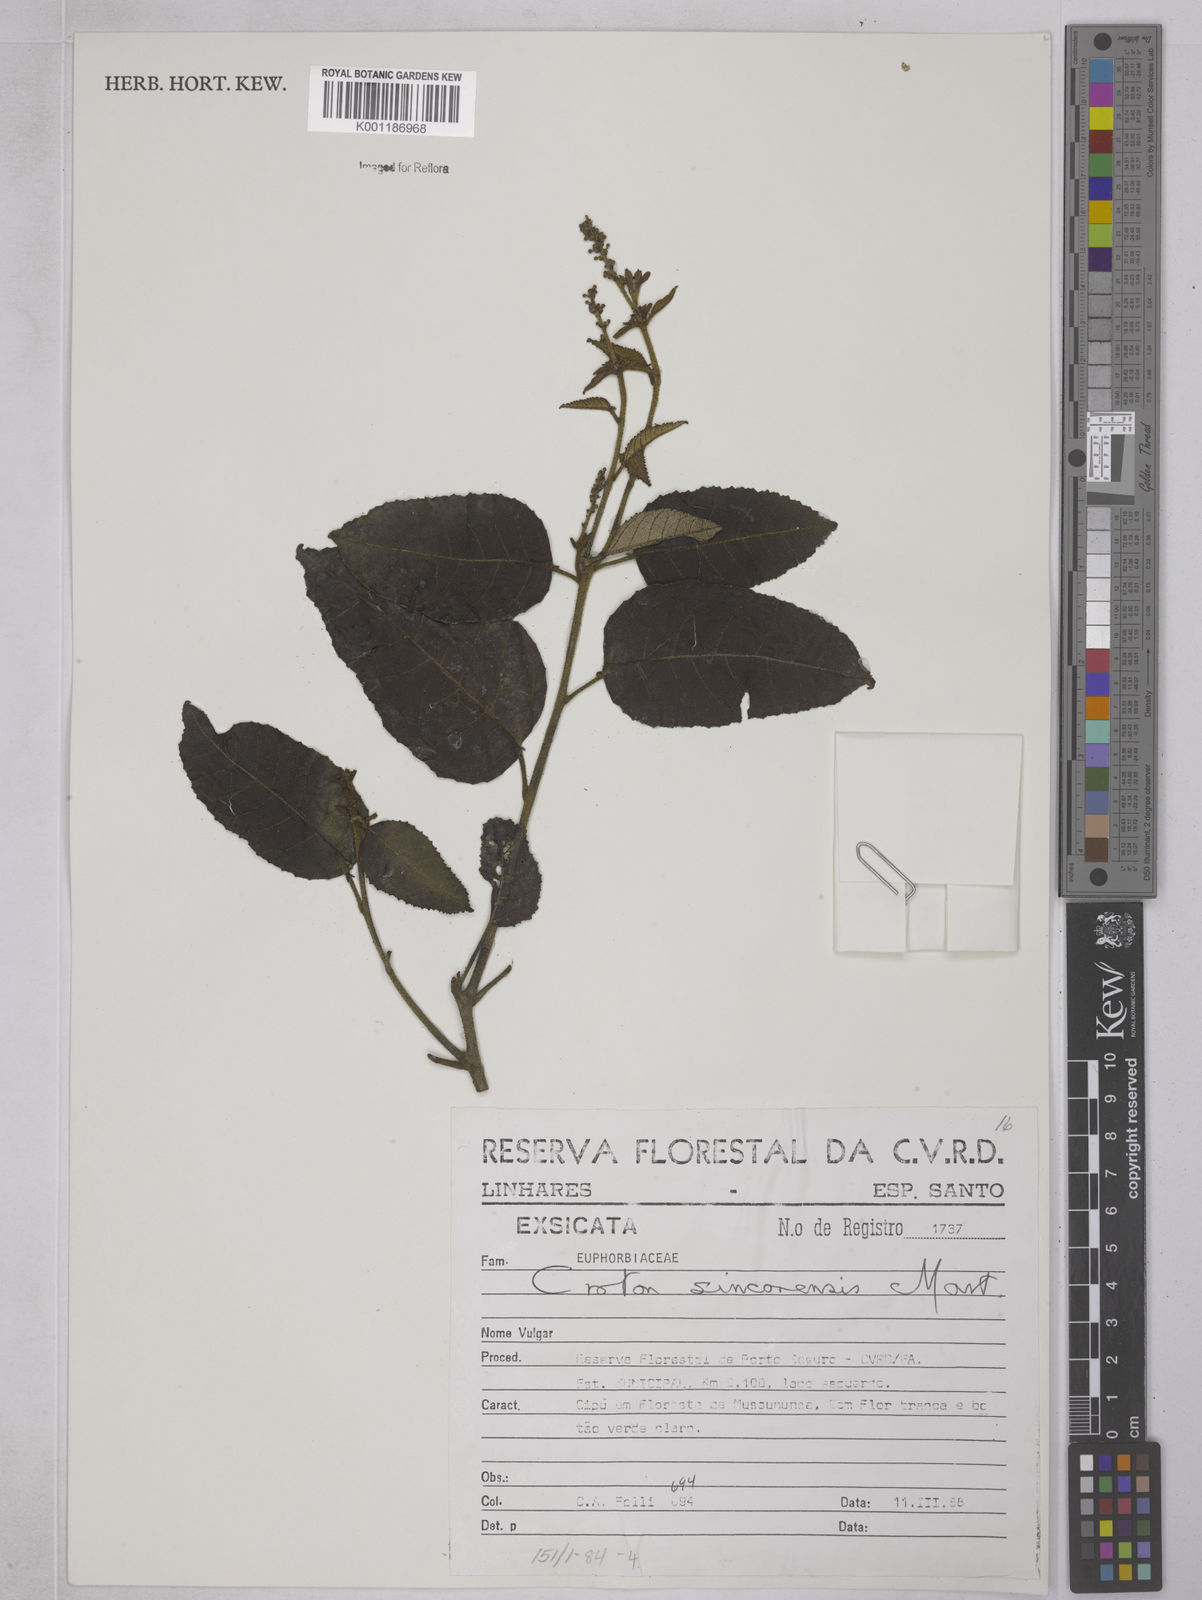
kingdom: Plantae
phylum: Tracheophyta
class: Magnoliopsida
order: Malpighiales
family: Euphorbiaceae
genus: Croton
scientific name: Croton sincorensis
